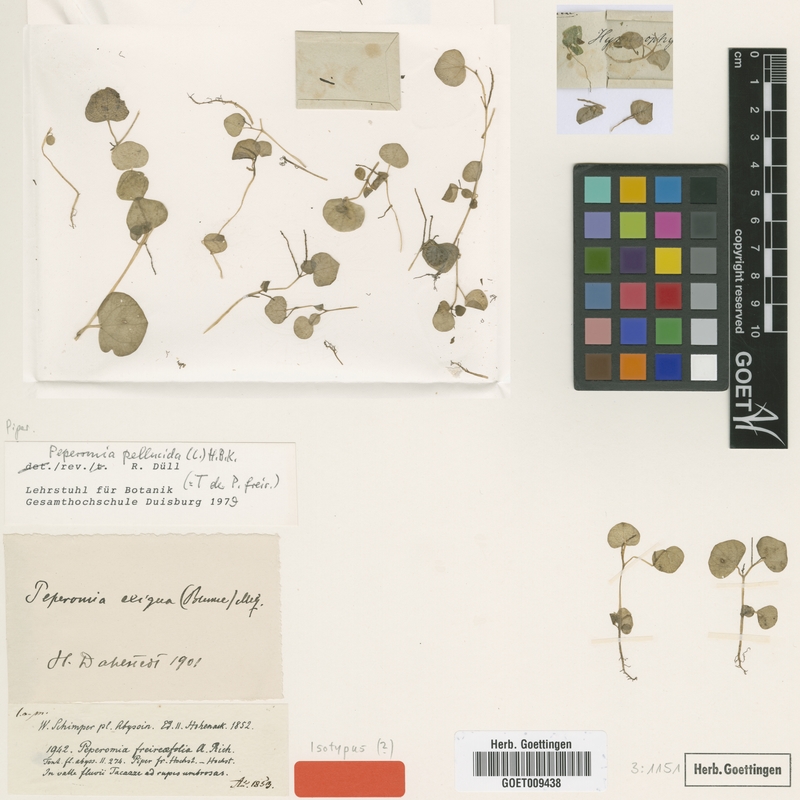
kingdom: Plantae
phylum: Tracheophyta
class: Magnoliopsida
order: Piperales
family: Piperaceae
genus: Peperomia
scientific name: Peperomia pellucida
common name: Man to man
